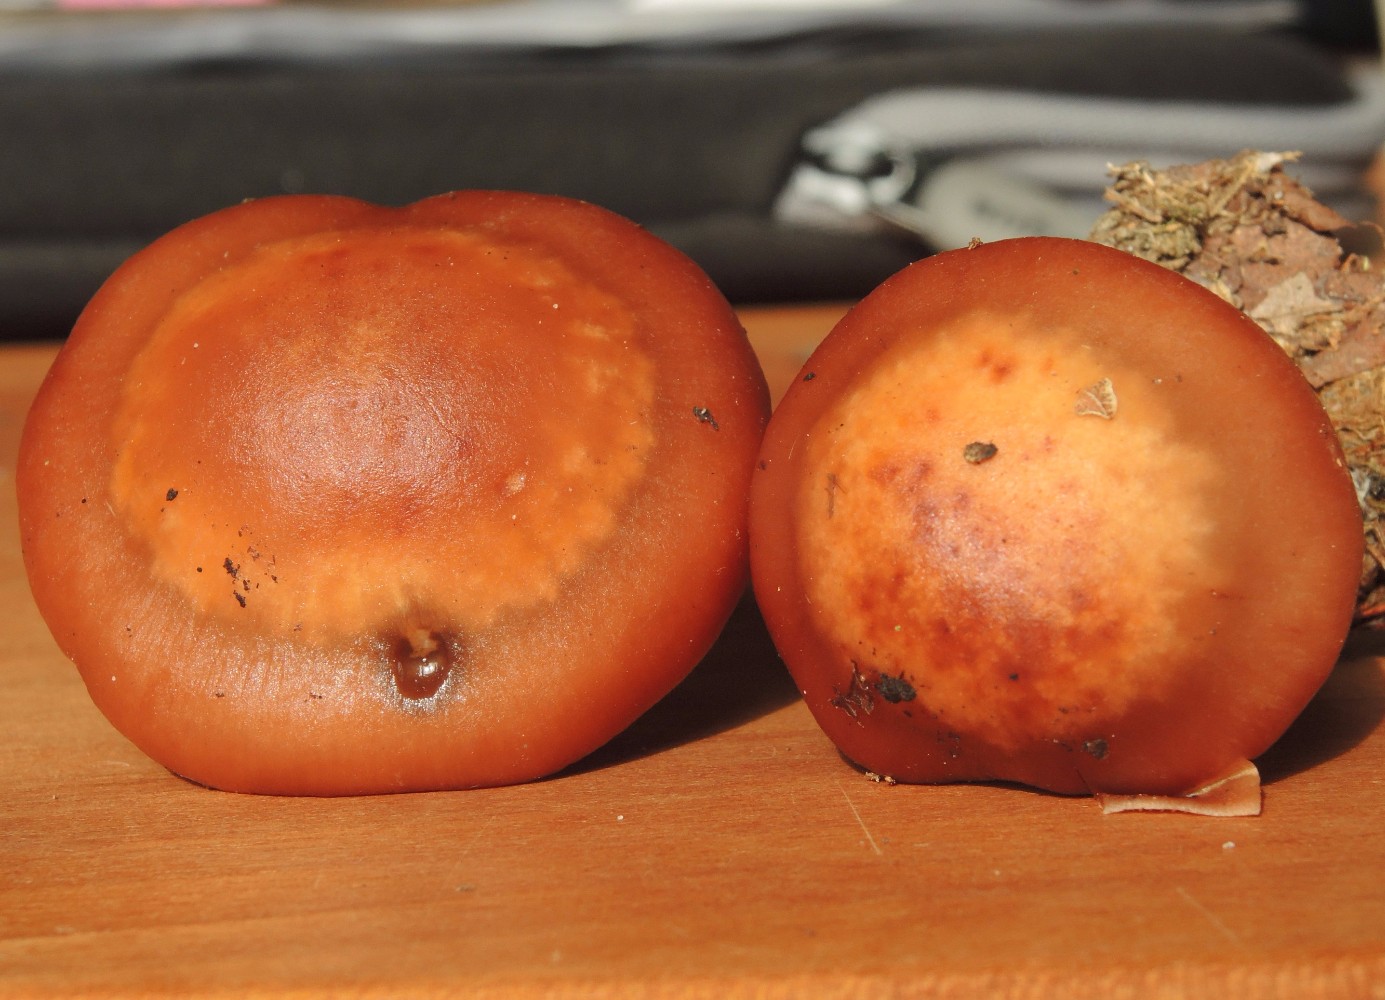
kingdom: Fungi
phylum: Basidiomycota
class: Agaricomycetes
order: Agaricales
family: Cortinariaceae
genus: Cortinarius
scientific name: Cortinarius armeniacus
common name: abrikos-slørhat
